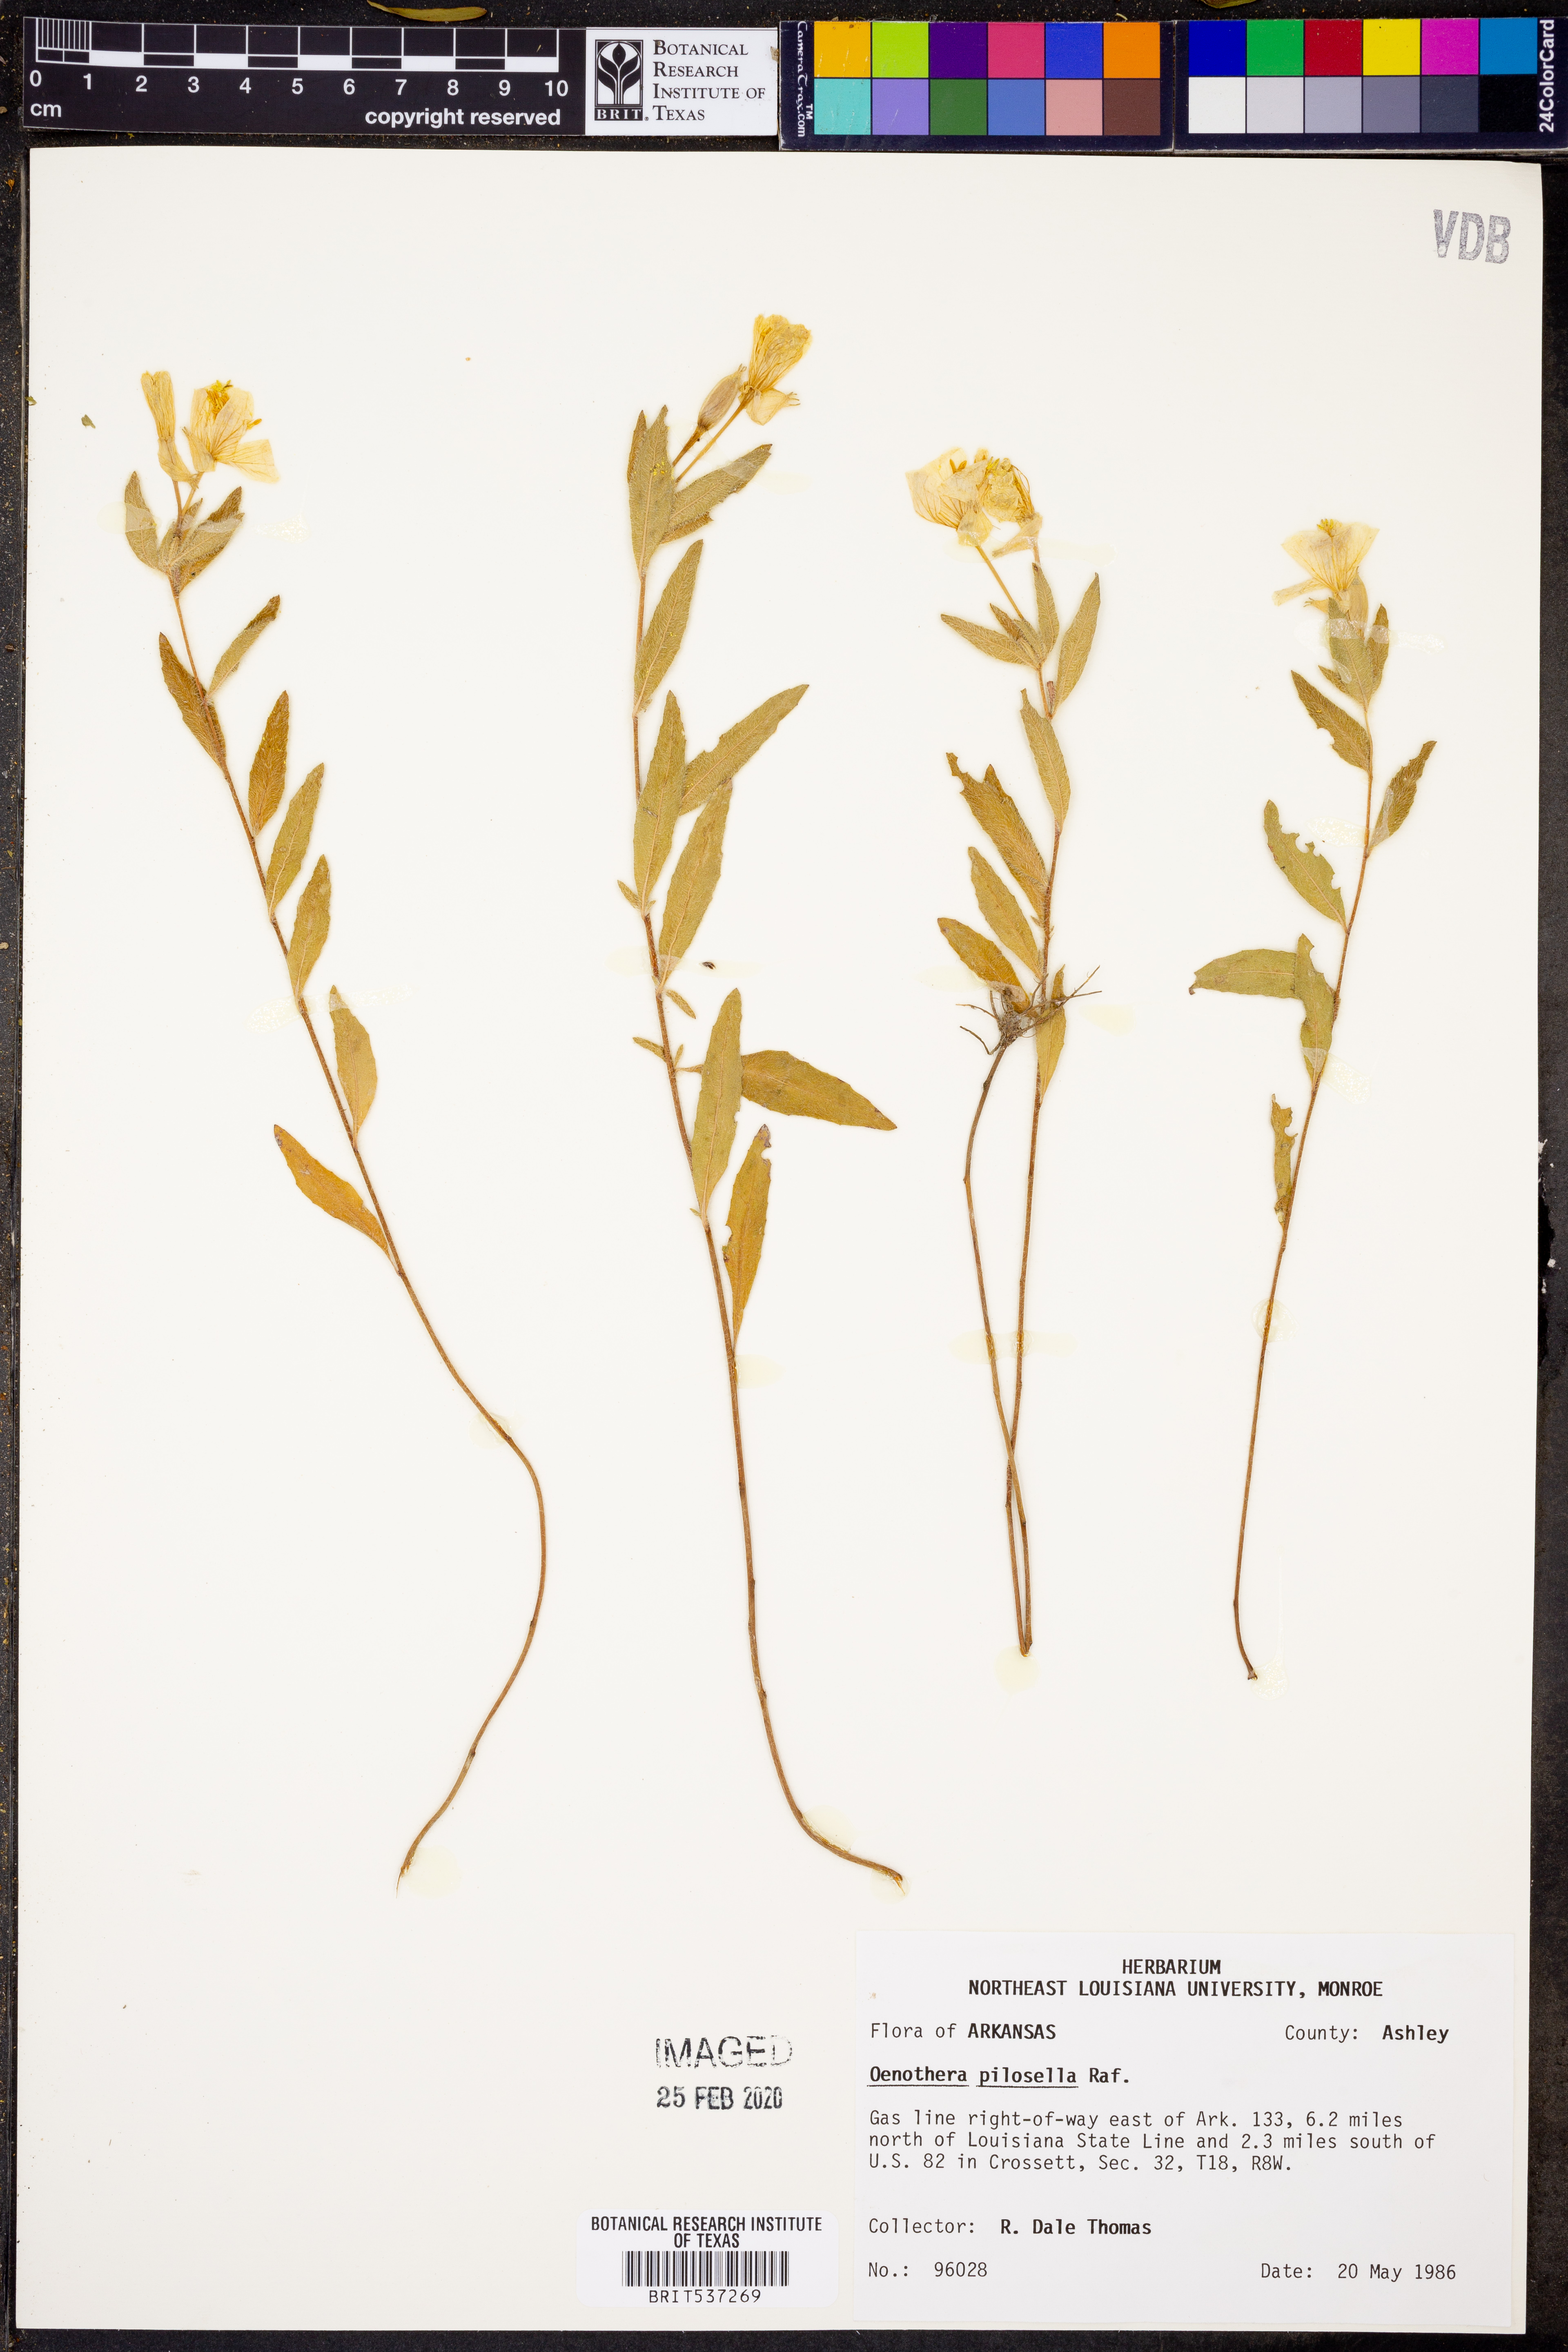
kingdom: Plantae
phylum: Tracheophyta
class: Magnoliopsida
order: Myrtales
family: Onagraceae
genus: Oenothera
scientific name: Oenothera pilosella
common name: Finely-pilose evening-primrose
